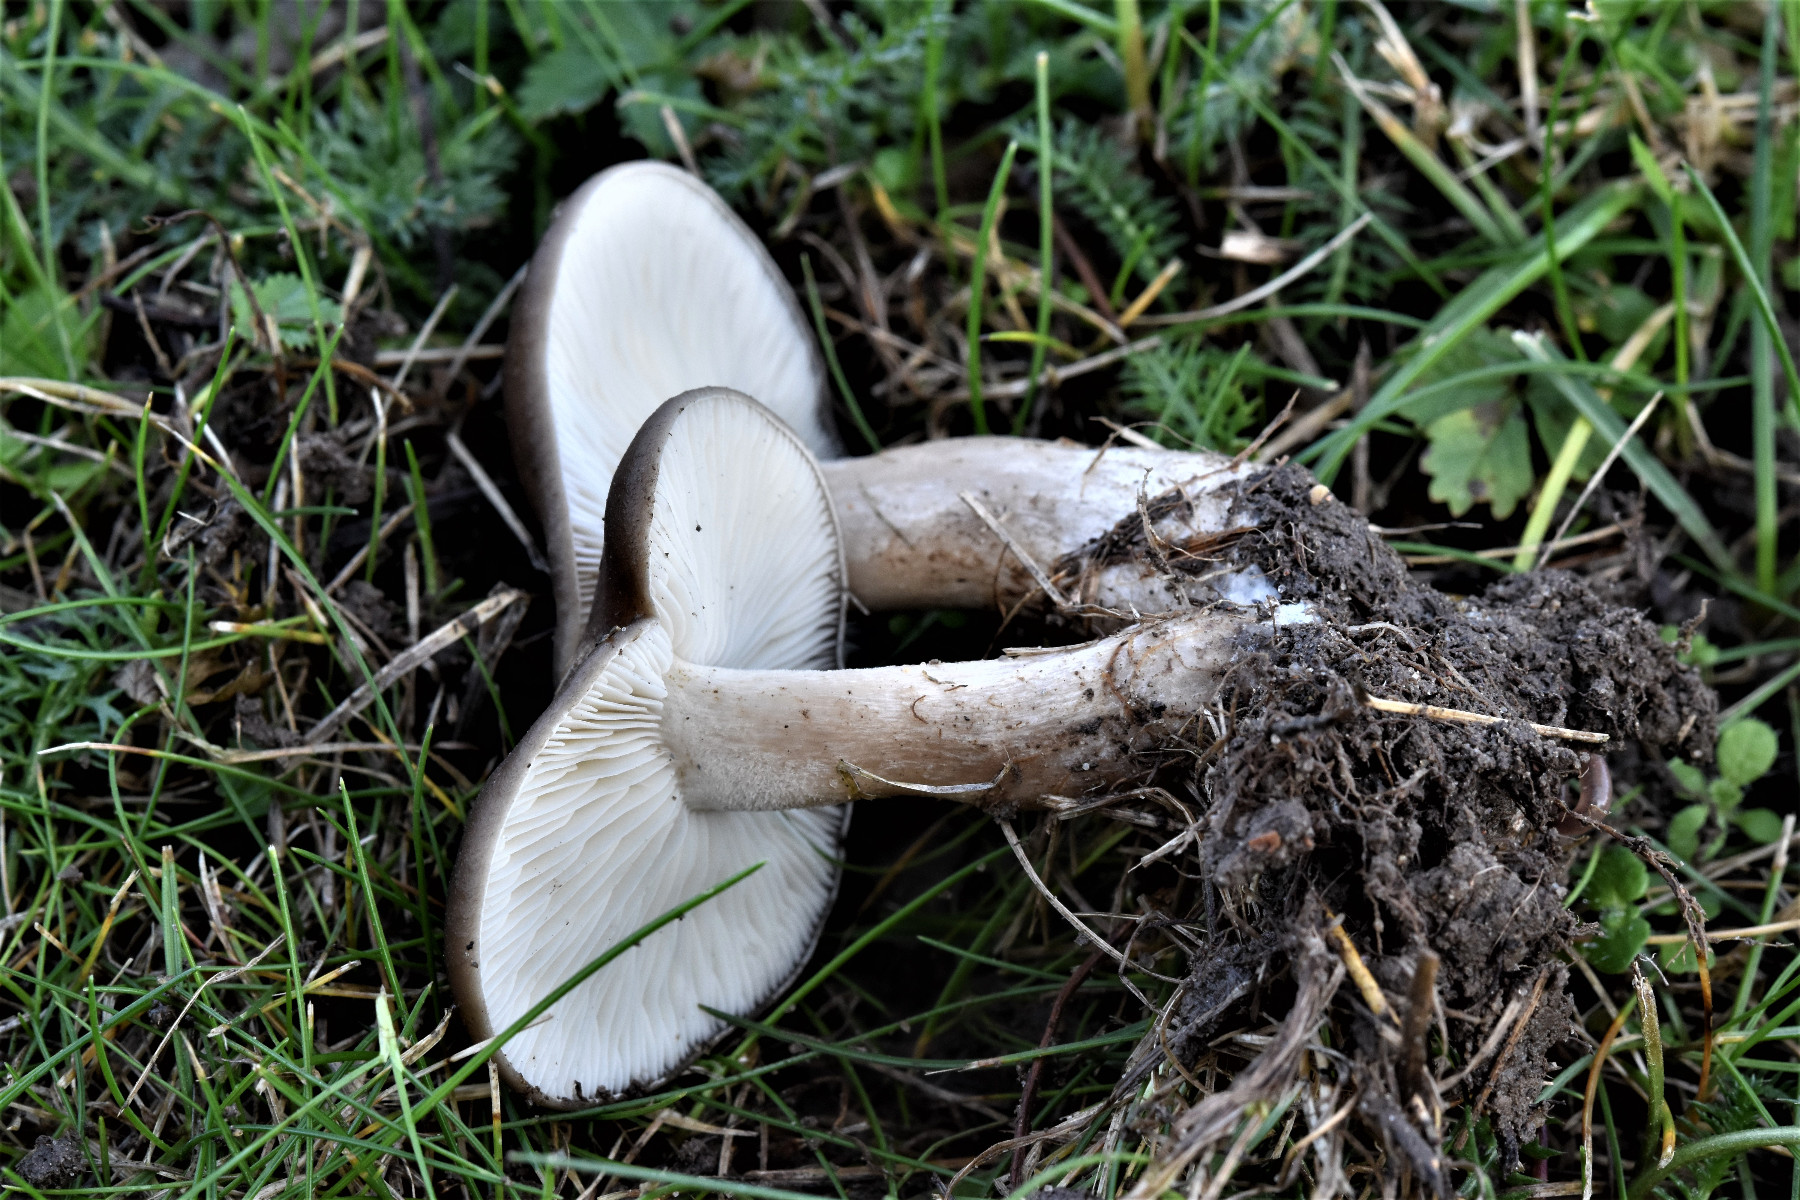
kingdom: Fungi
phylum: Basidiomycota
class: Agaricomycetes
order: Agaricales
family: Lyophyllaceae
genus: Lyophyllum
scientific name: Lyophyllum
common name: gråblad
